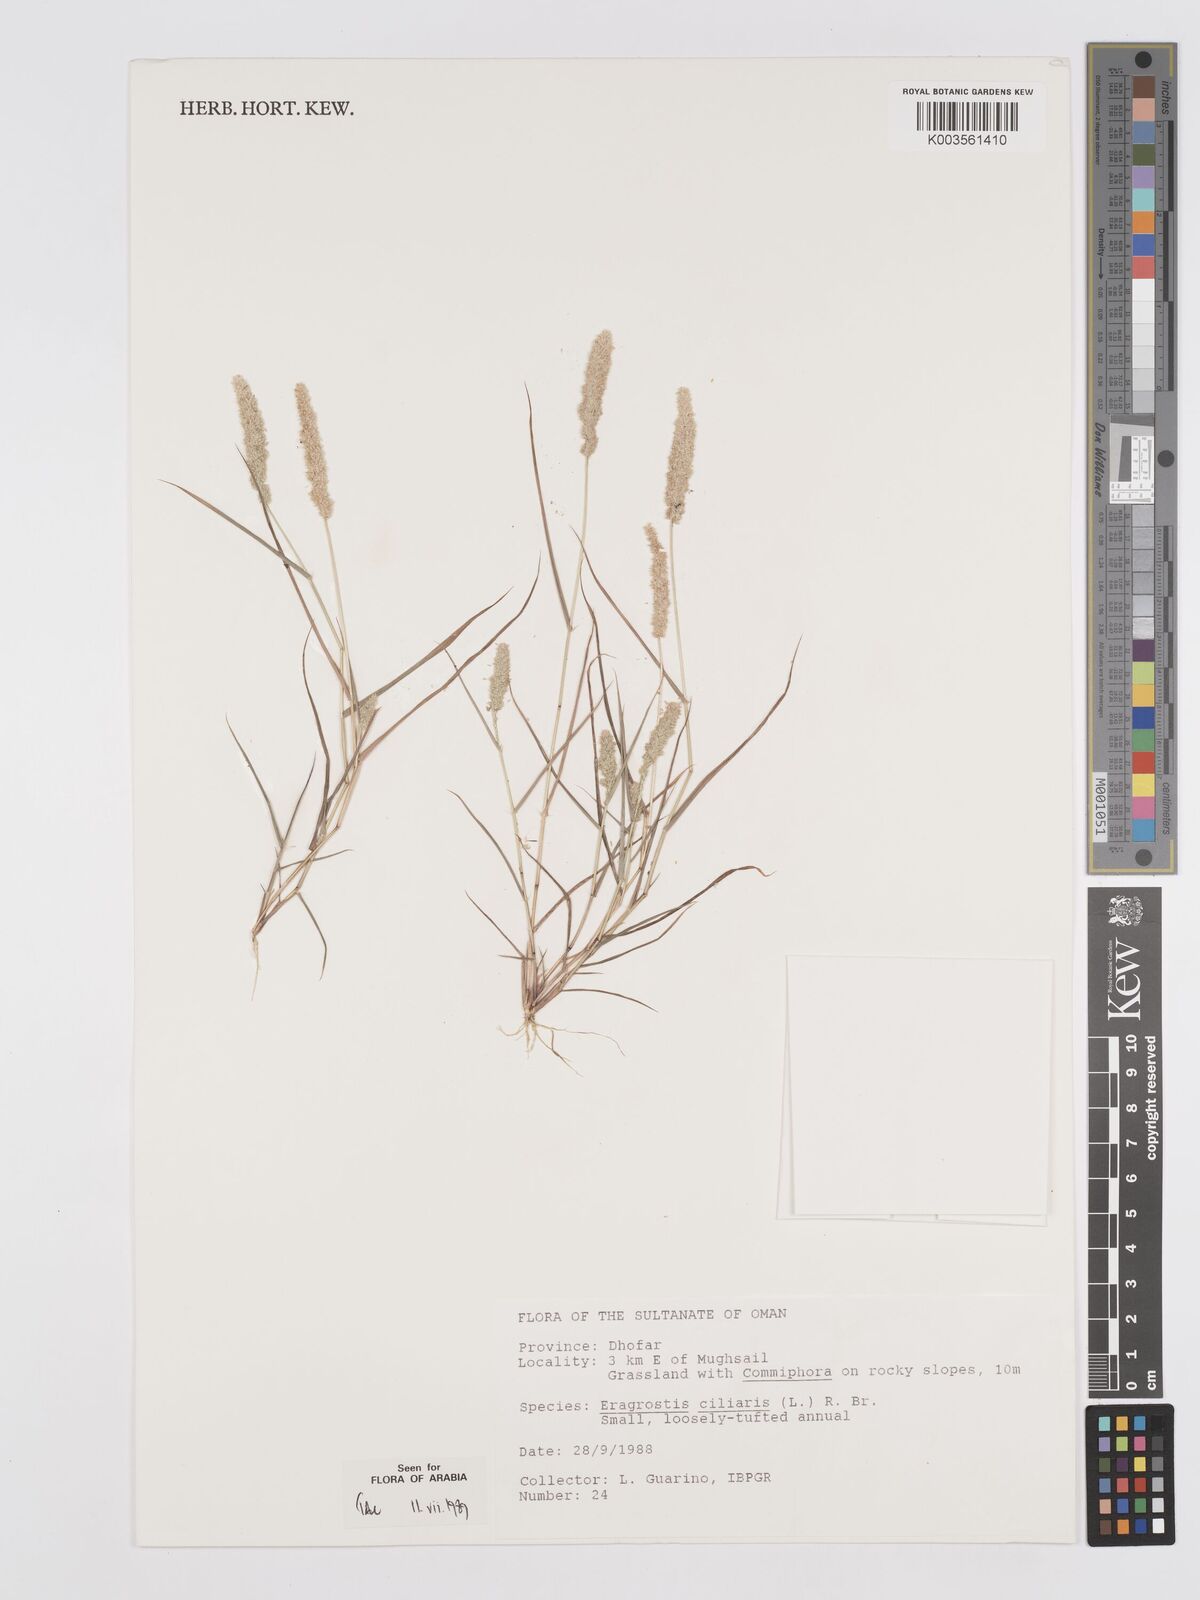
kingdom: Plantae
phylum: Tracheophyta
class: Liliopsida
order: Poales
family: Poaceae
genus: Eragrostis
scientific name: Eragrostis ciliaris
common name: Gophertail lovegrass
